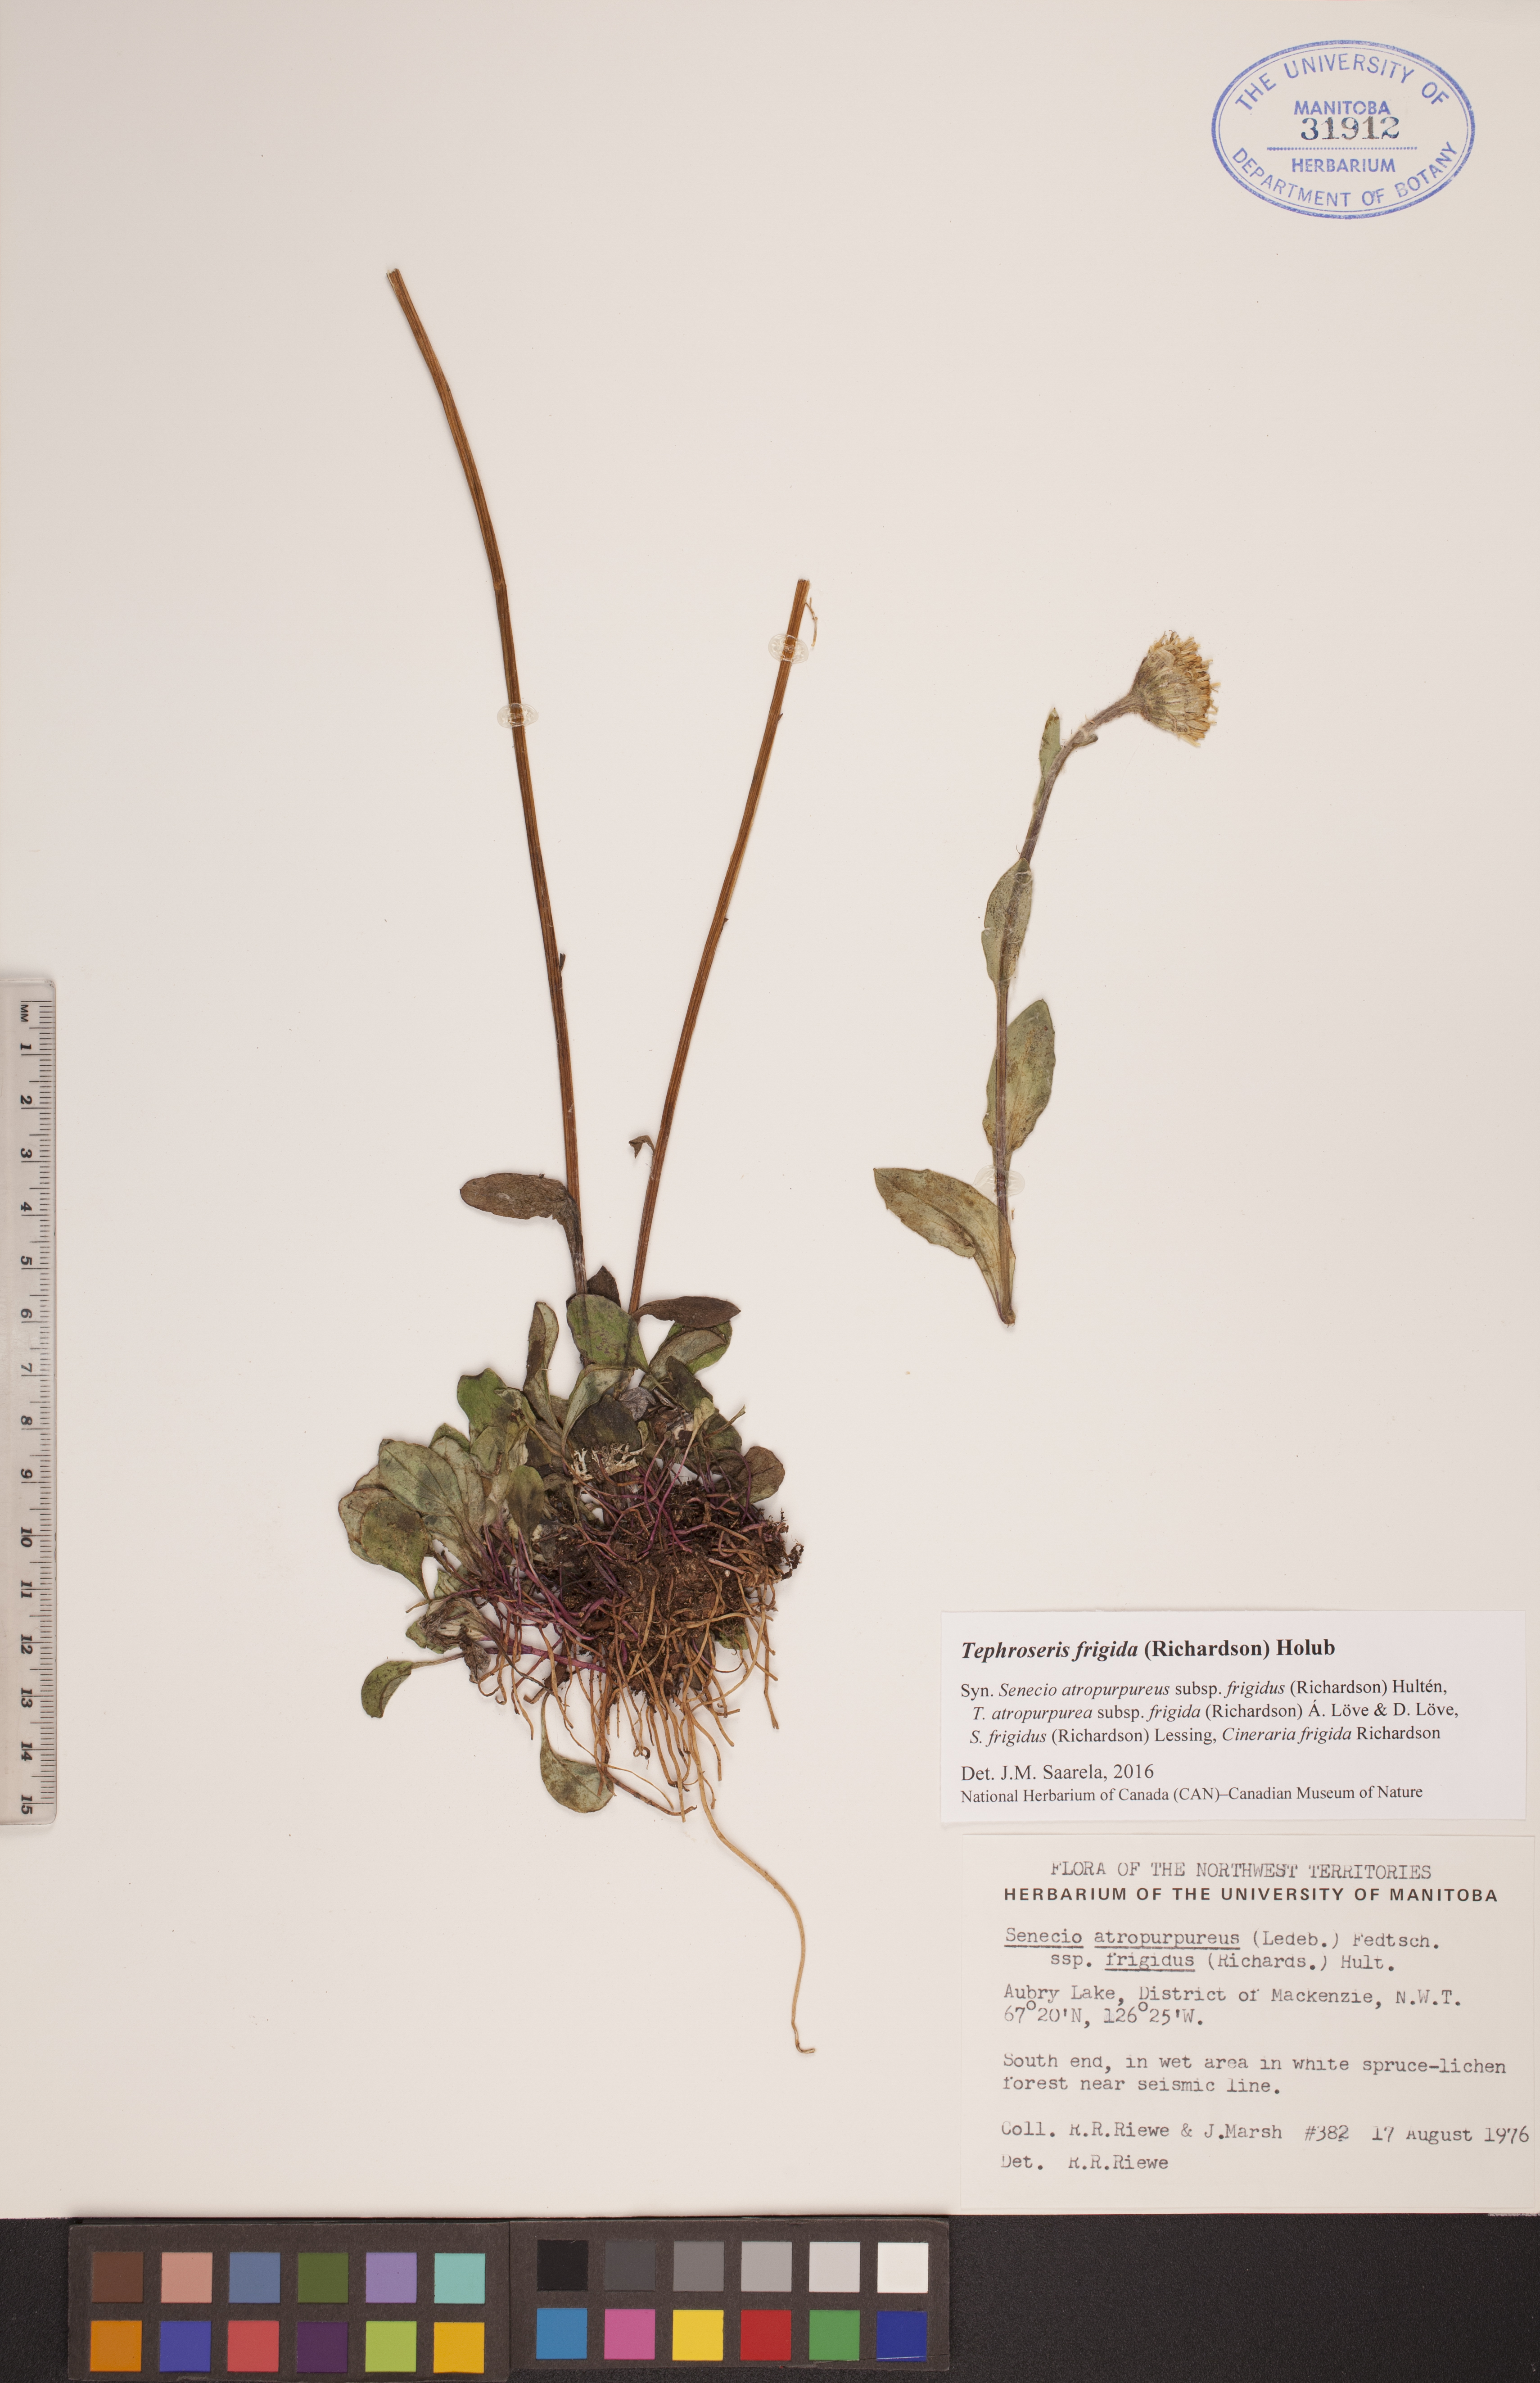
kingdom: Plantae
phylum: Tracheophyta
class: Magnoliopsida
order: Asterales
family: Asteraceae
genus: Tephroseris
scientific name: Tephroseris frigida
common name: Arctic groundsel
